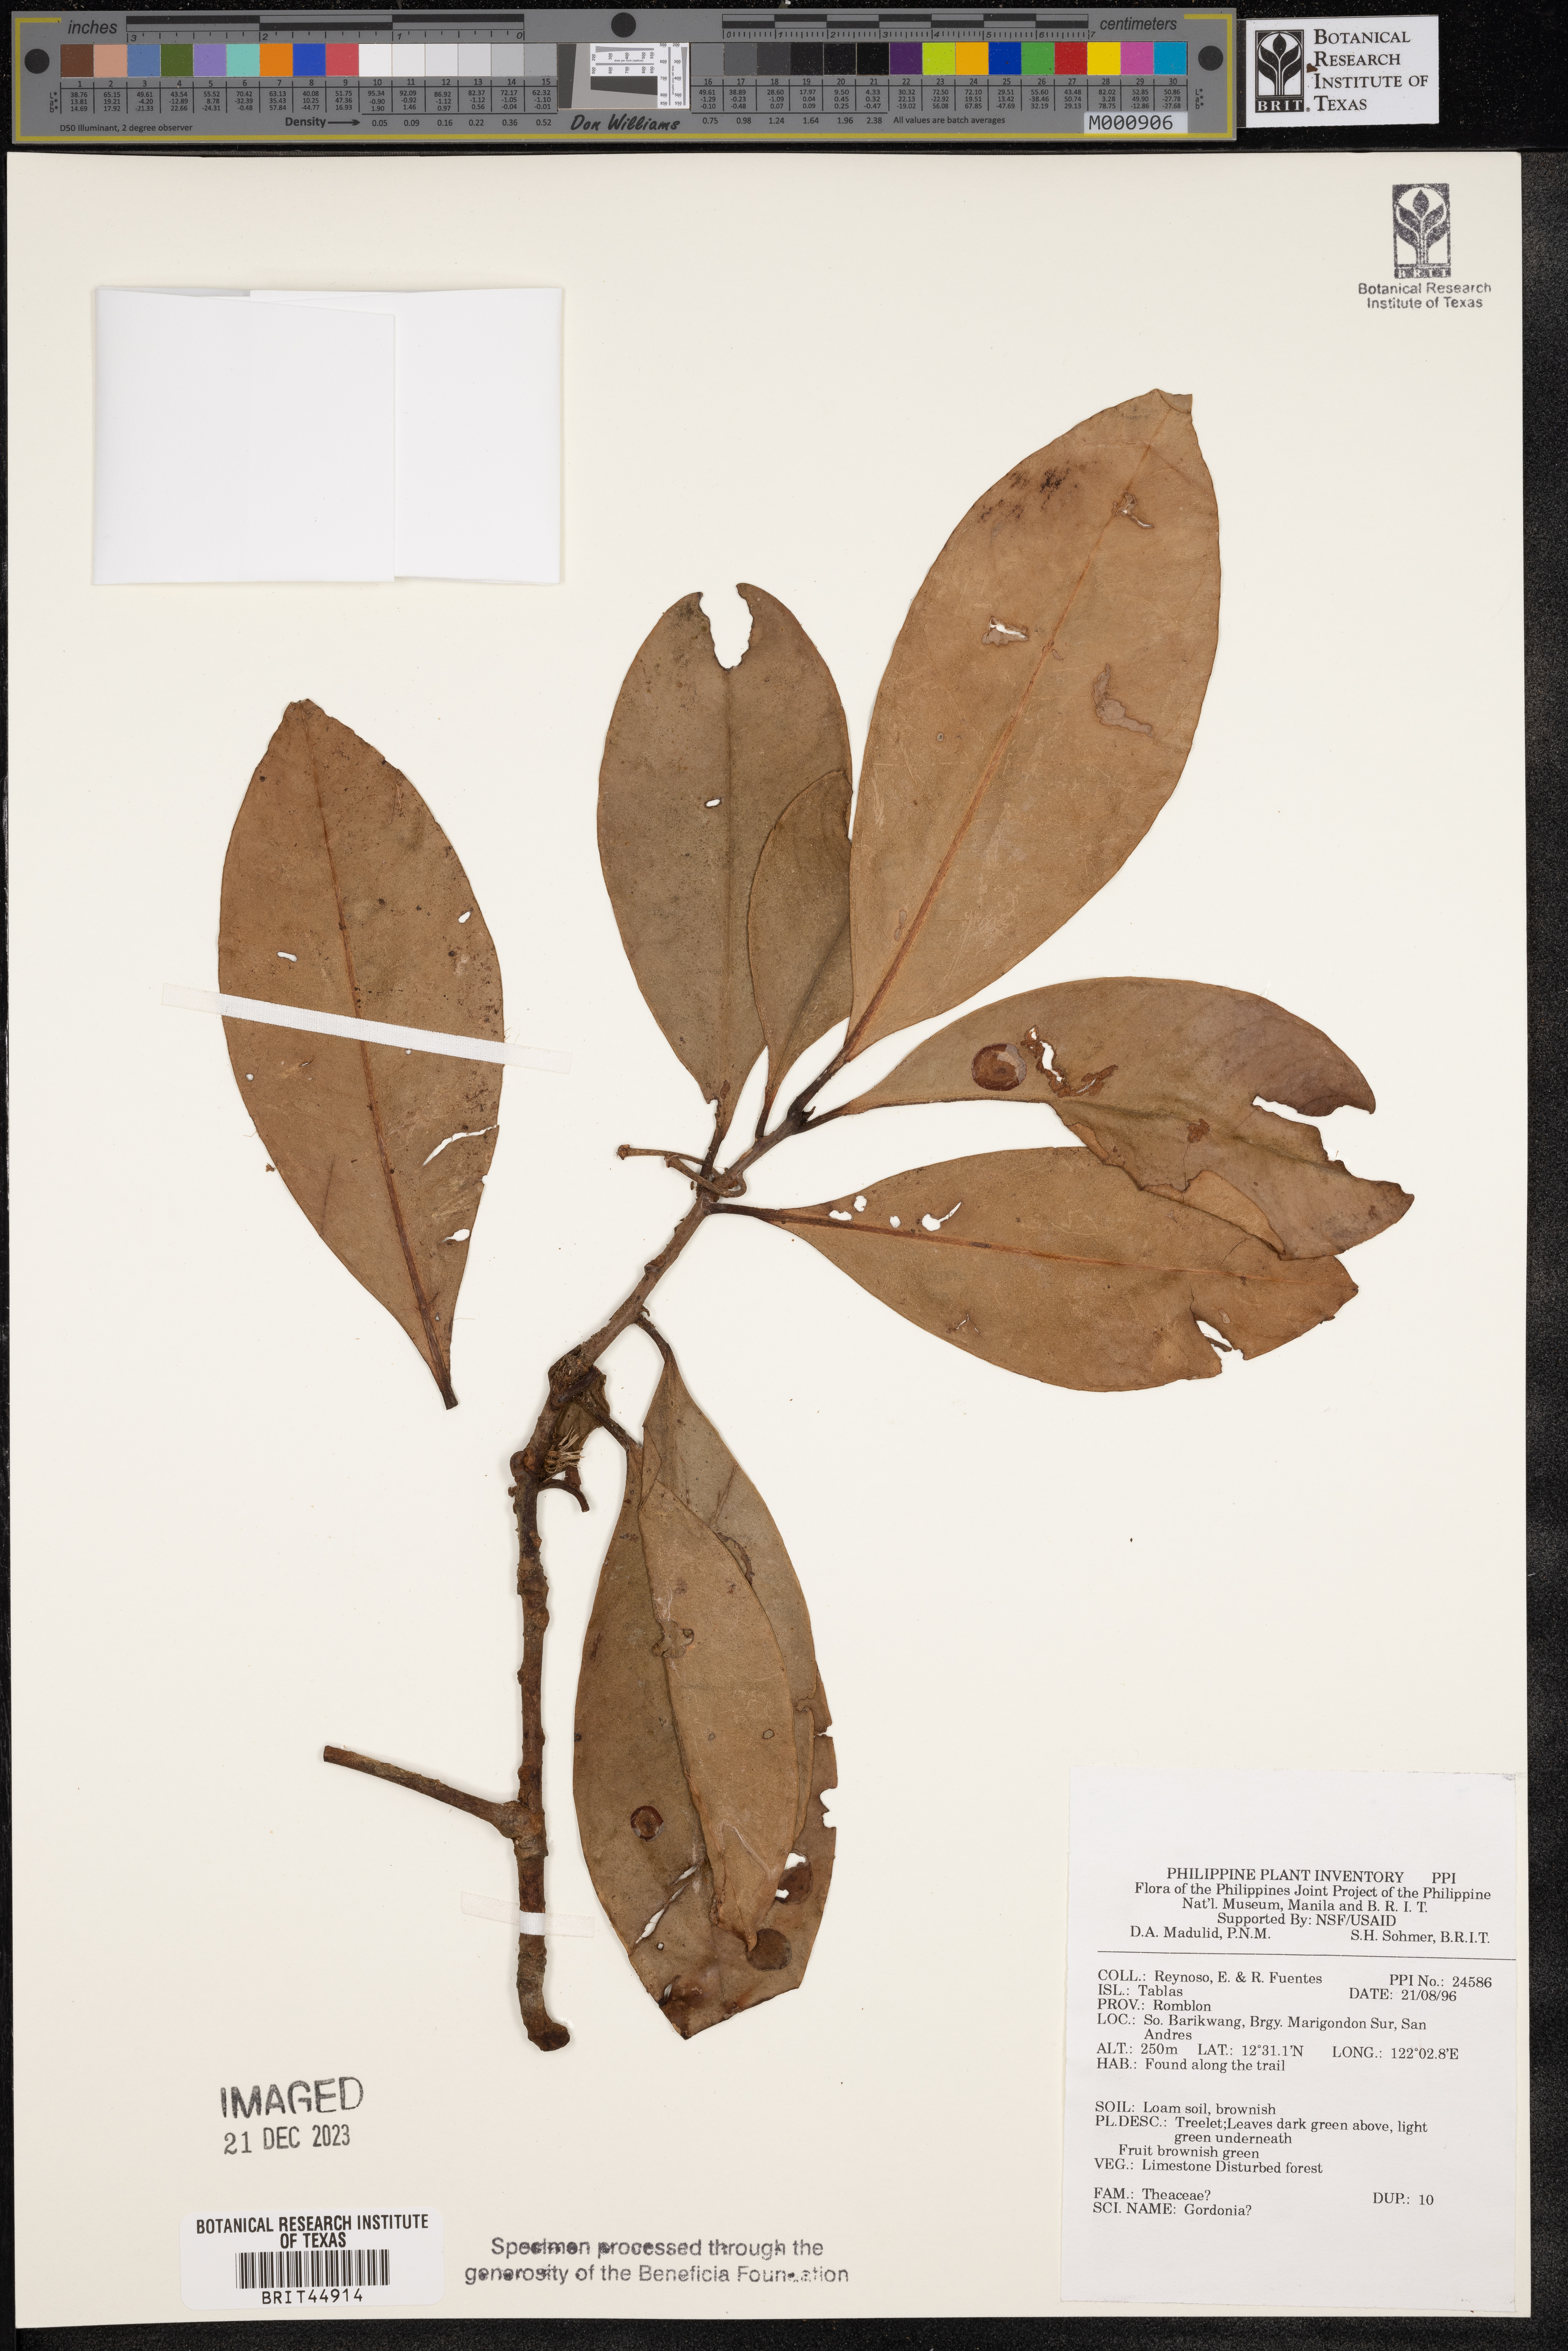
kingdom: Plantae
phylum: Tracheophyta
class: Magnoliopsida
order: Ericales
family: Theaceae
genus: Gordonia
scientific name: Gordonia
